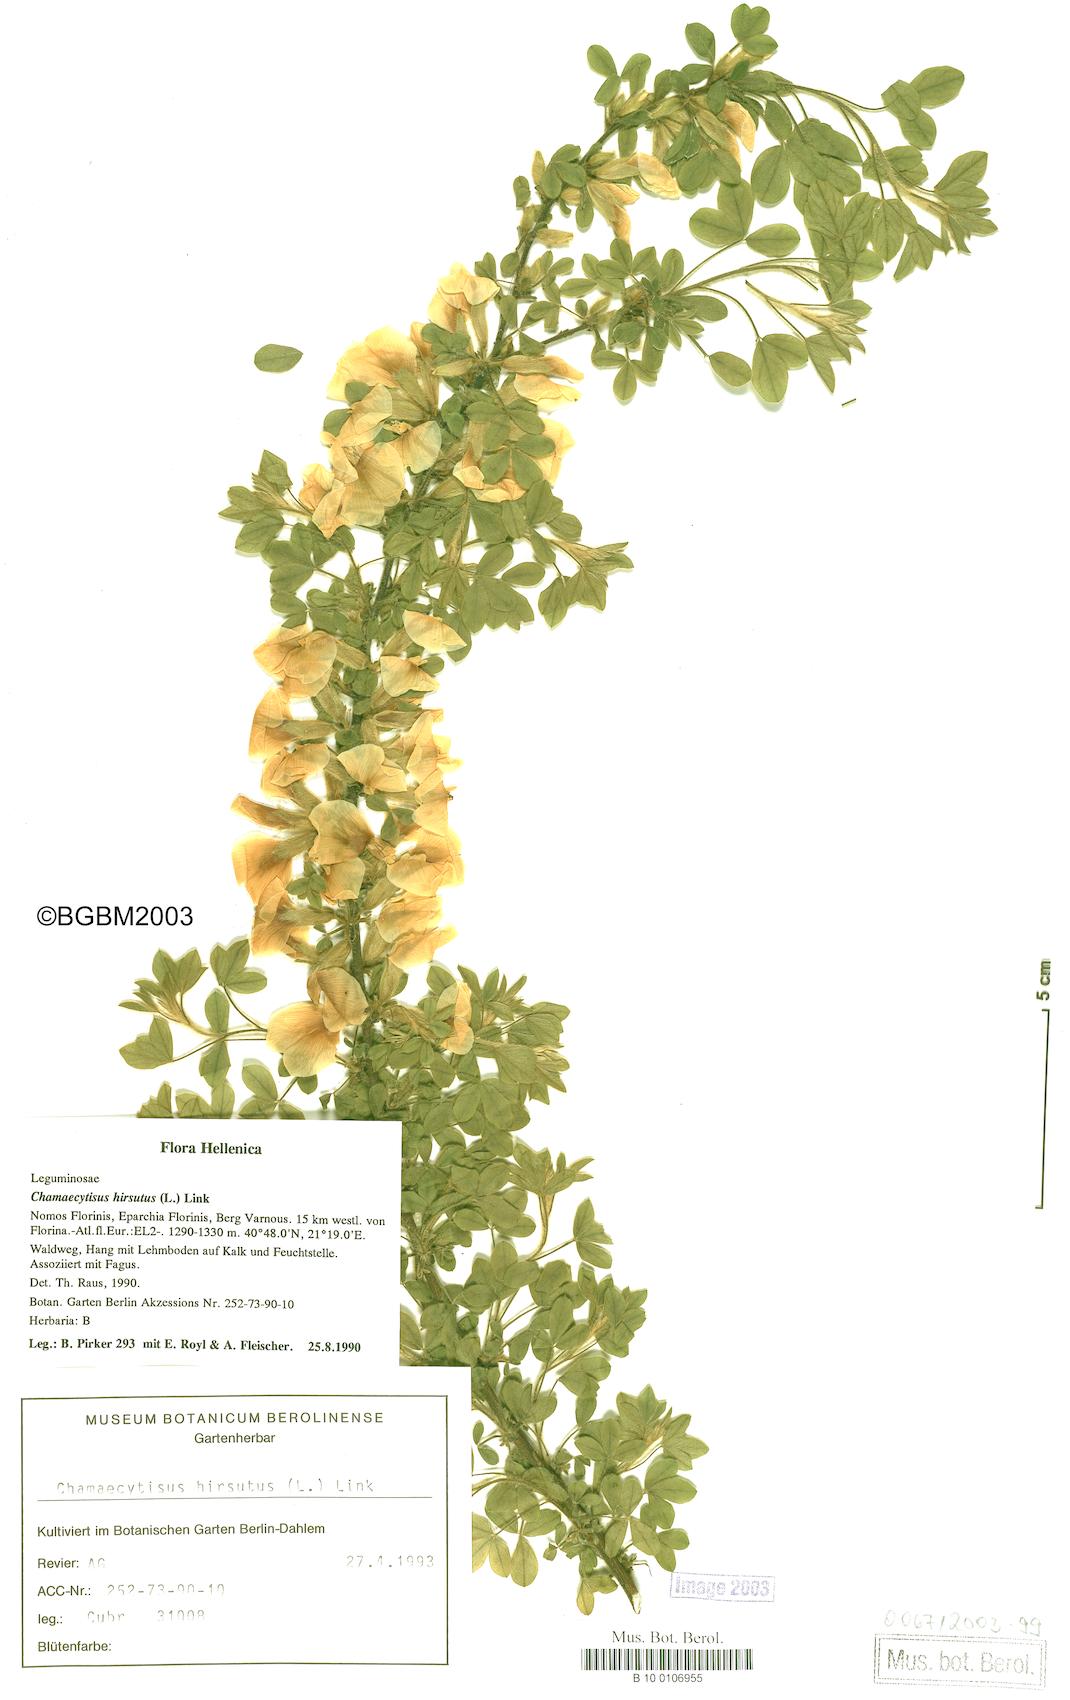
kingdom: Plantae
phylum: Tracheophyta
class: Magnoliopsida
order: Fabales
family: Fabaceae
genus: Chamaecytisus
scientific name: Chamaecytisus hirsutus
